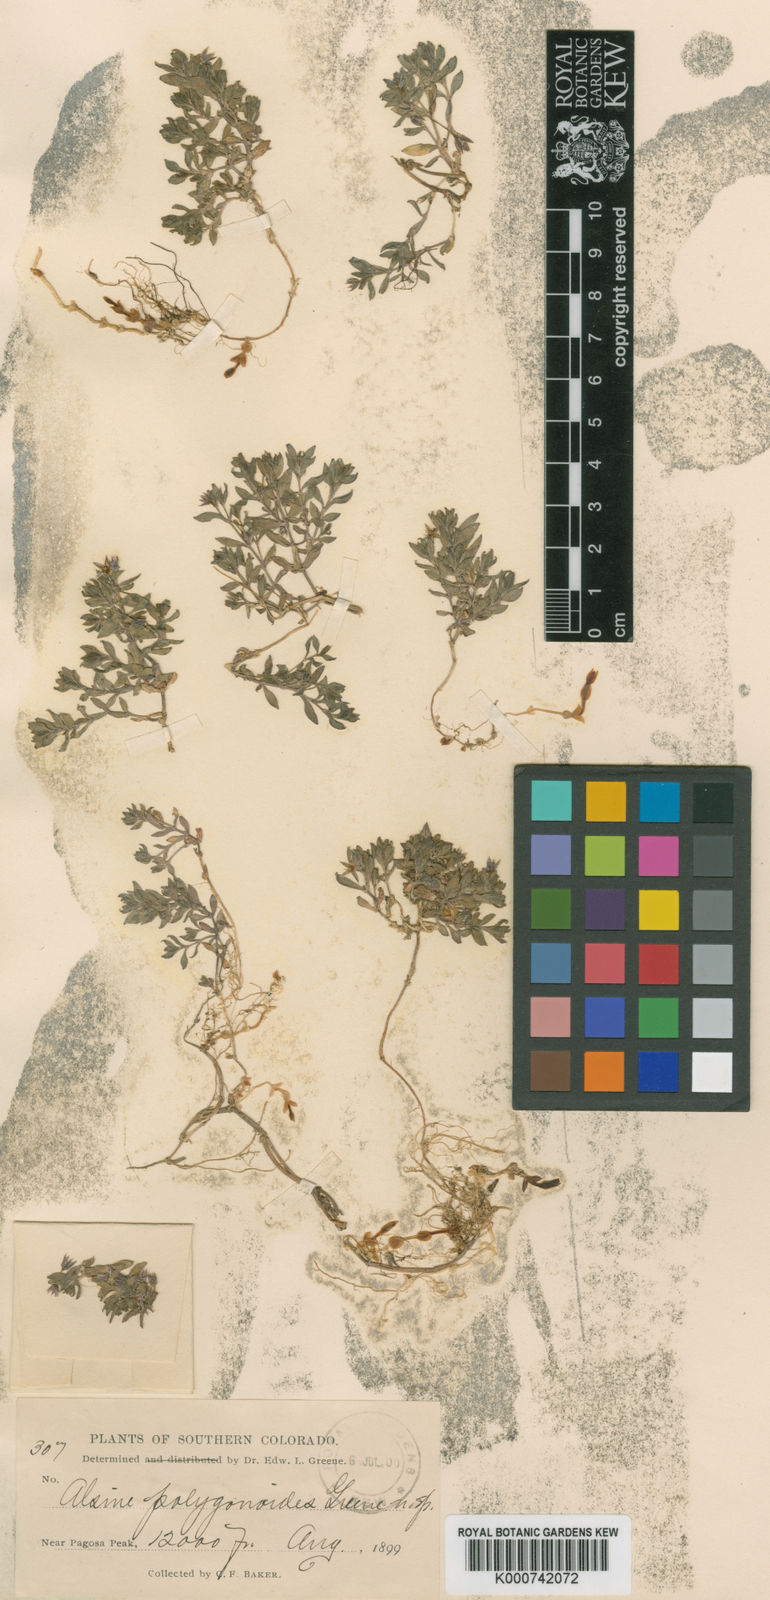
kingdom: Plantae
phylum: Tracheophyta
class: Magnoliopsida
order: Caryophyllales
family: Caryophyllaceae
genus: Minuartia
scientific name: Minuartia
